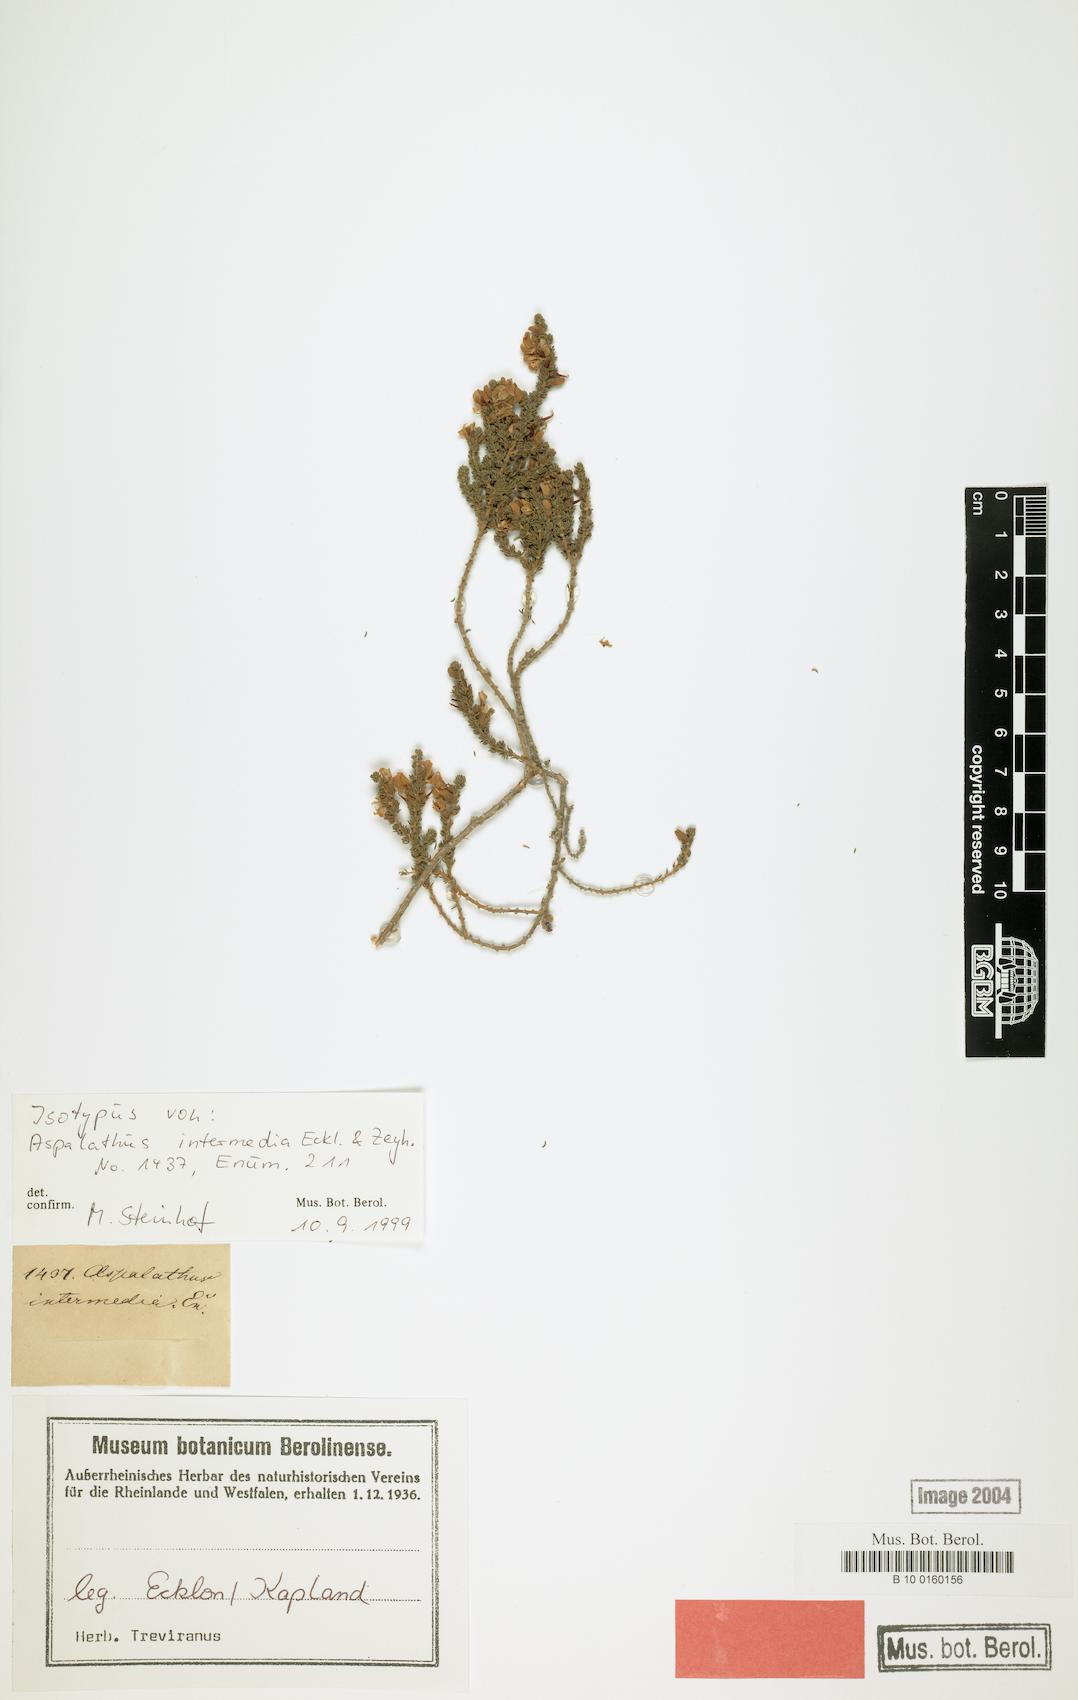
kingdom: Plantae
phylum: Tracheophyta
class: Magnoliopsida
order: Fabales
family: Fabaceae
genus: Aspalathus
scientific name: Aspalathus intermedia
